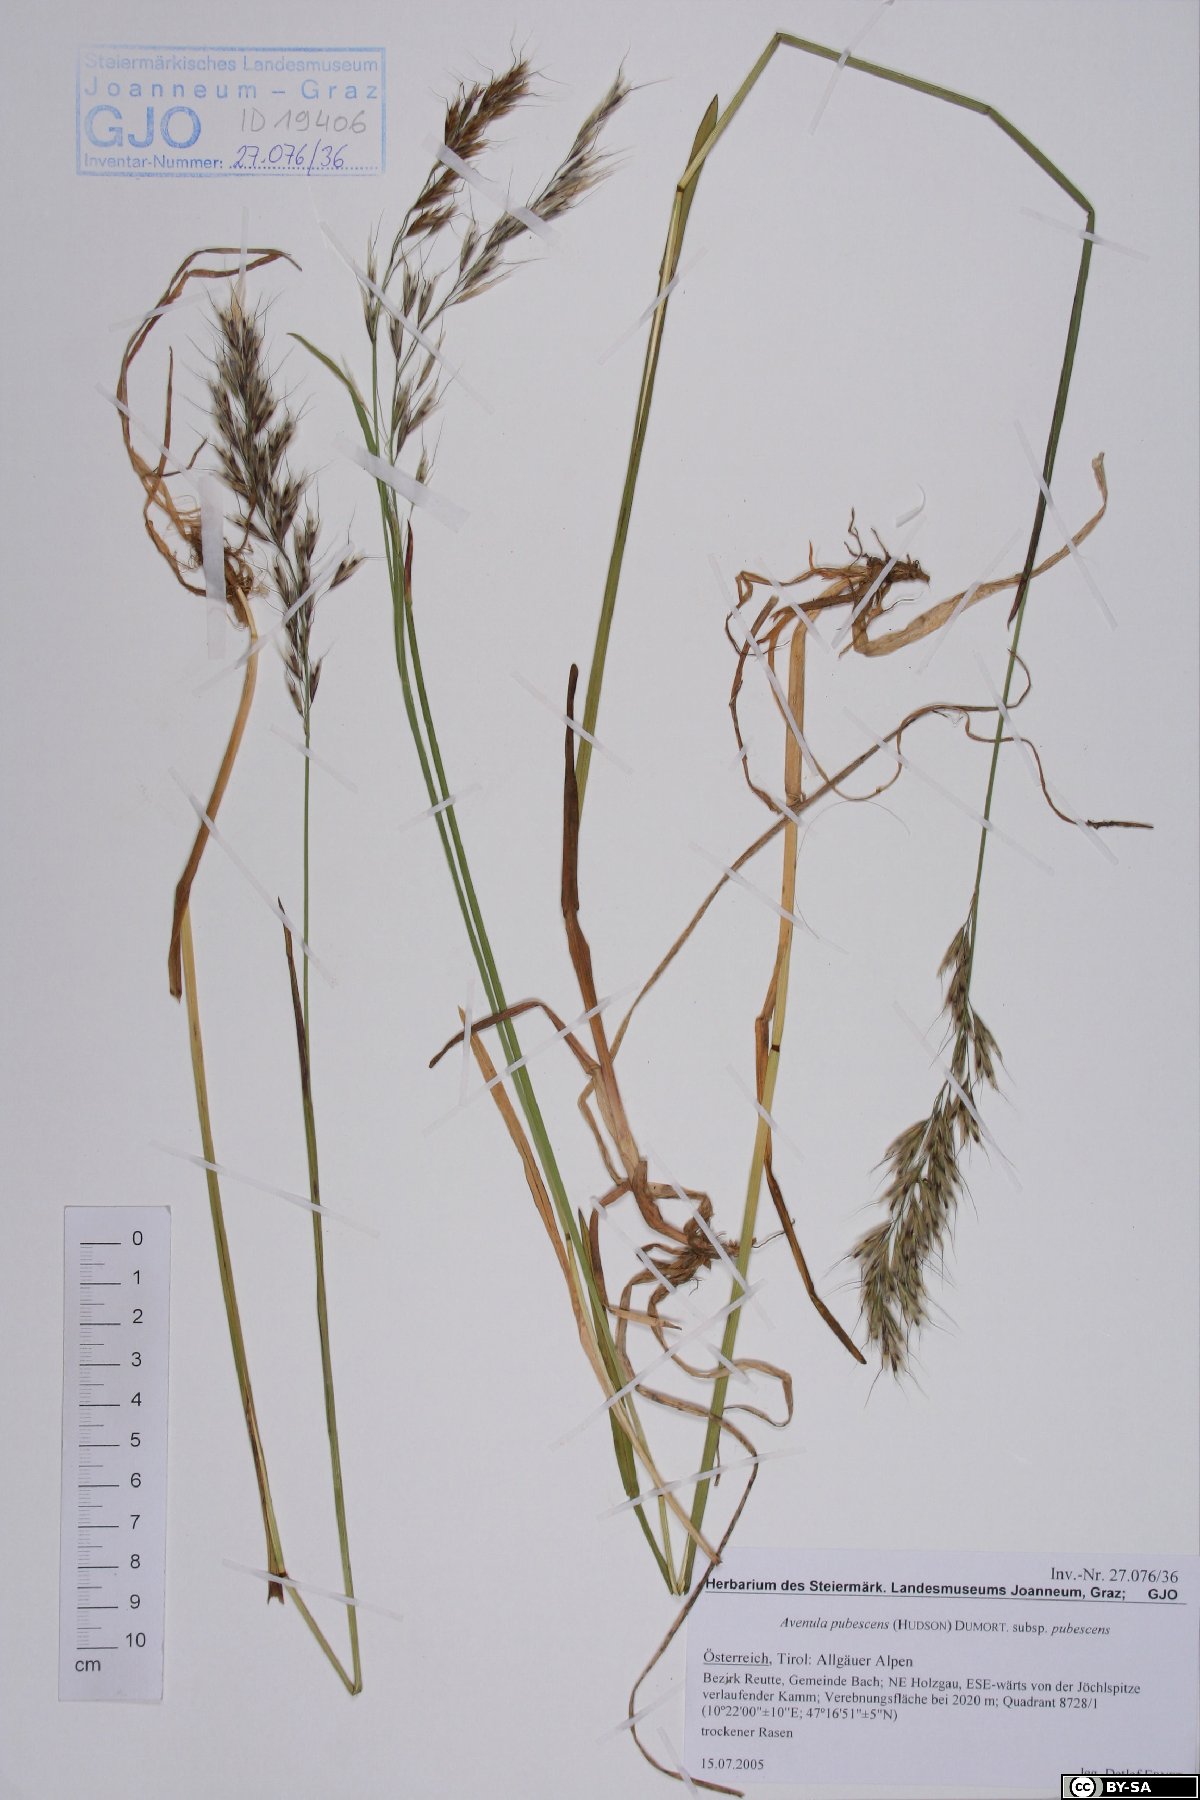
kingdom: Plantae
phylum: Tracheophyta
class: Liliopsida
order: Poales
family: Poaceae
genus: Avenula
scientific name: Avenula pubescens
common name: Downy alpine oatgrass
